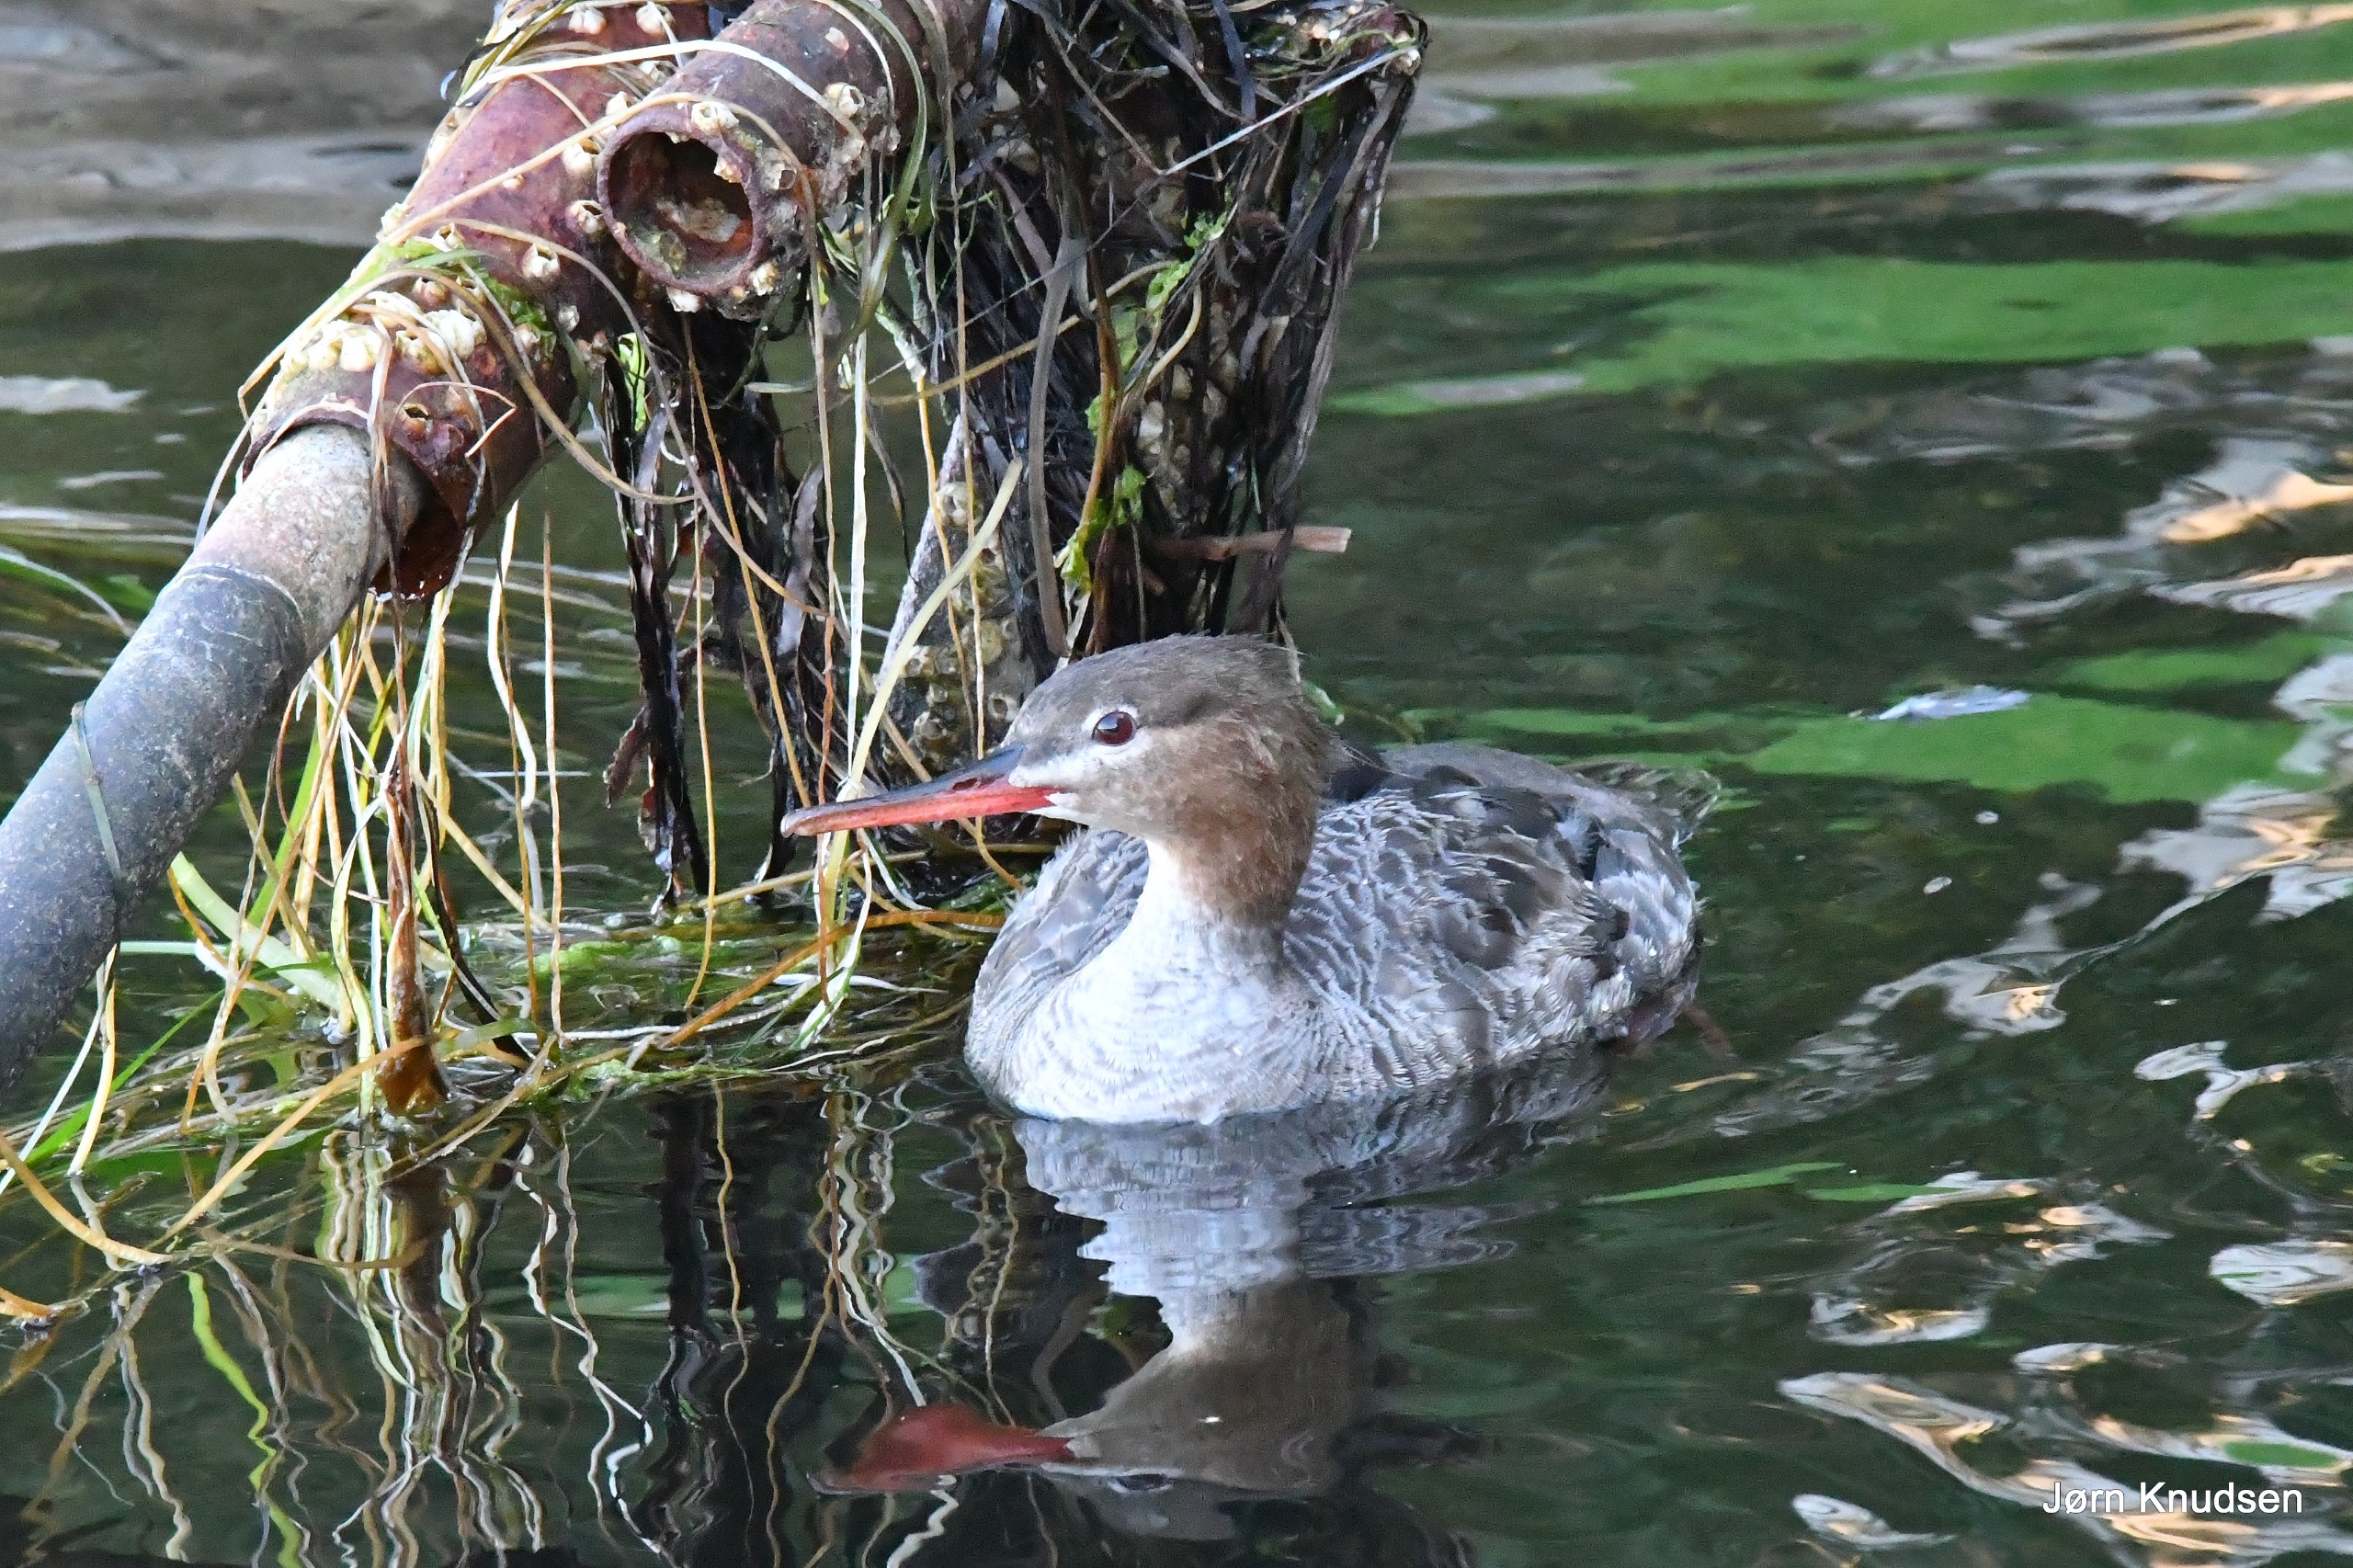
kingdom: Animalia
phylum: Chordata
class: Aves
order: Anseriformes
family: Anatidae
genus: Mergus
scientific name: Mergus serrator
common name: Toppet skallesluger
